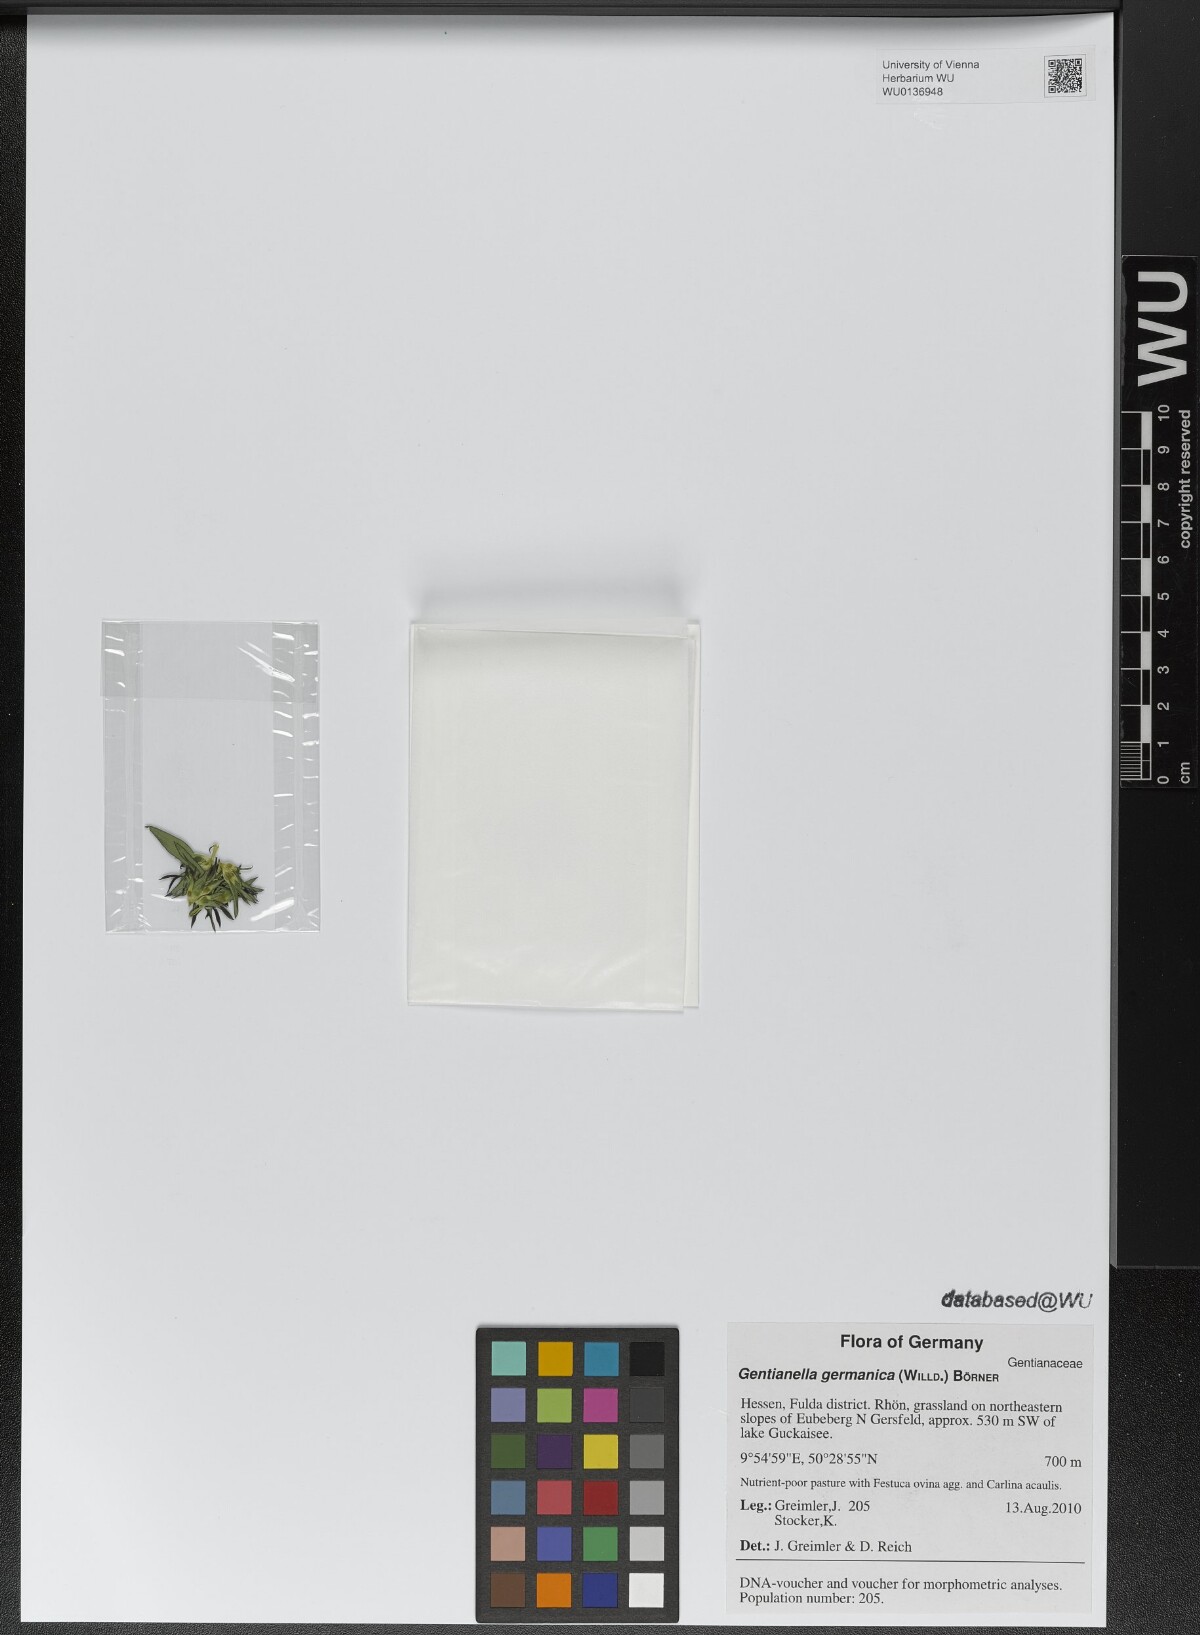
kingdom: Plantae
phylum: Tracheophyta
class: Magnoliopsida
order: Gentianales
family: Gentianaceae
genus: Gentianella
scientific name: Gentianella germanica
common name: Chiltern-gentian
